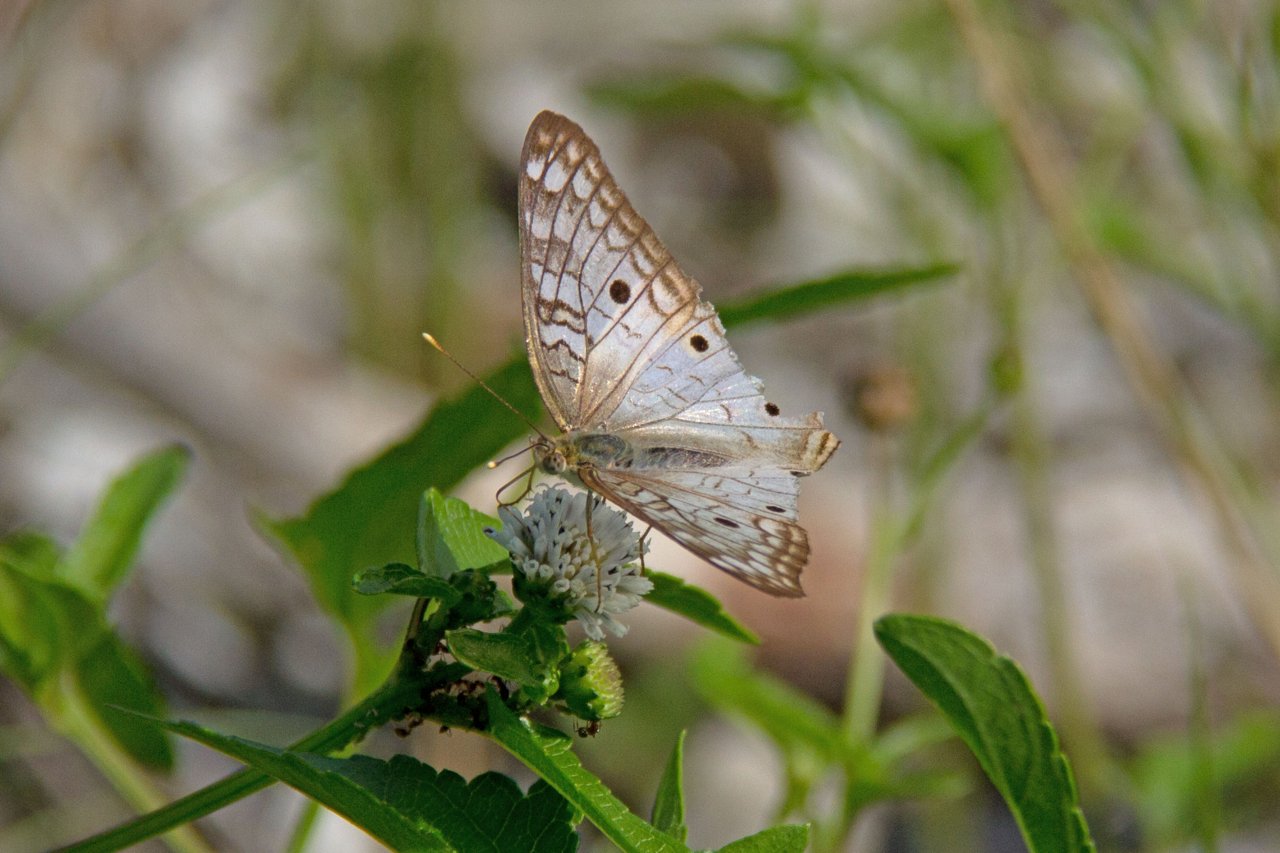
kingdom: Animalia
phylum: Arthropoda
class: Insecta
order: Lepidoptera
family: Nymphalidae
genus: Anartia
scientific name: Anartia jatrophae
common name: White Peacock
